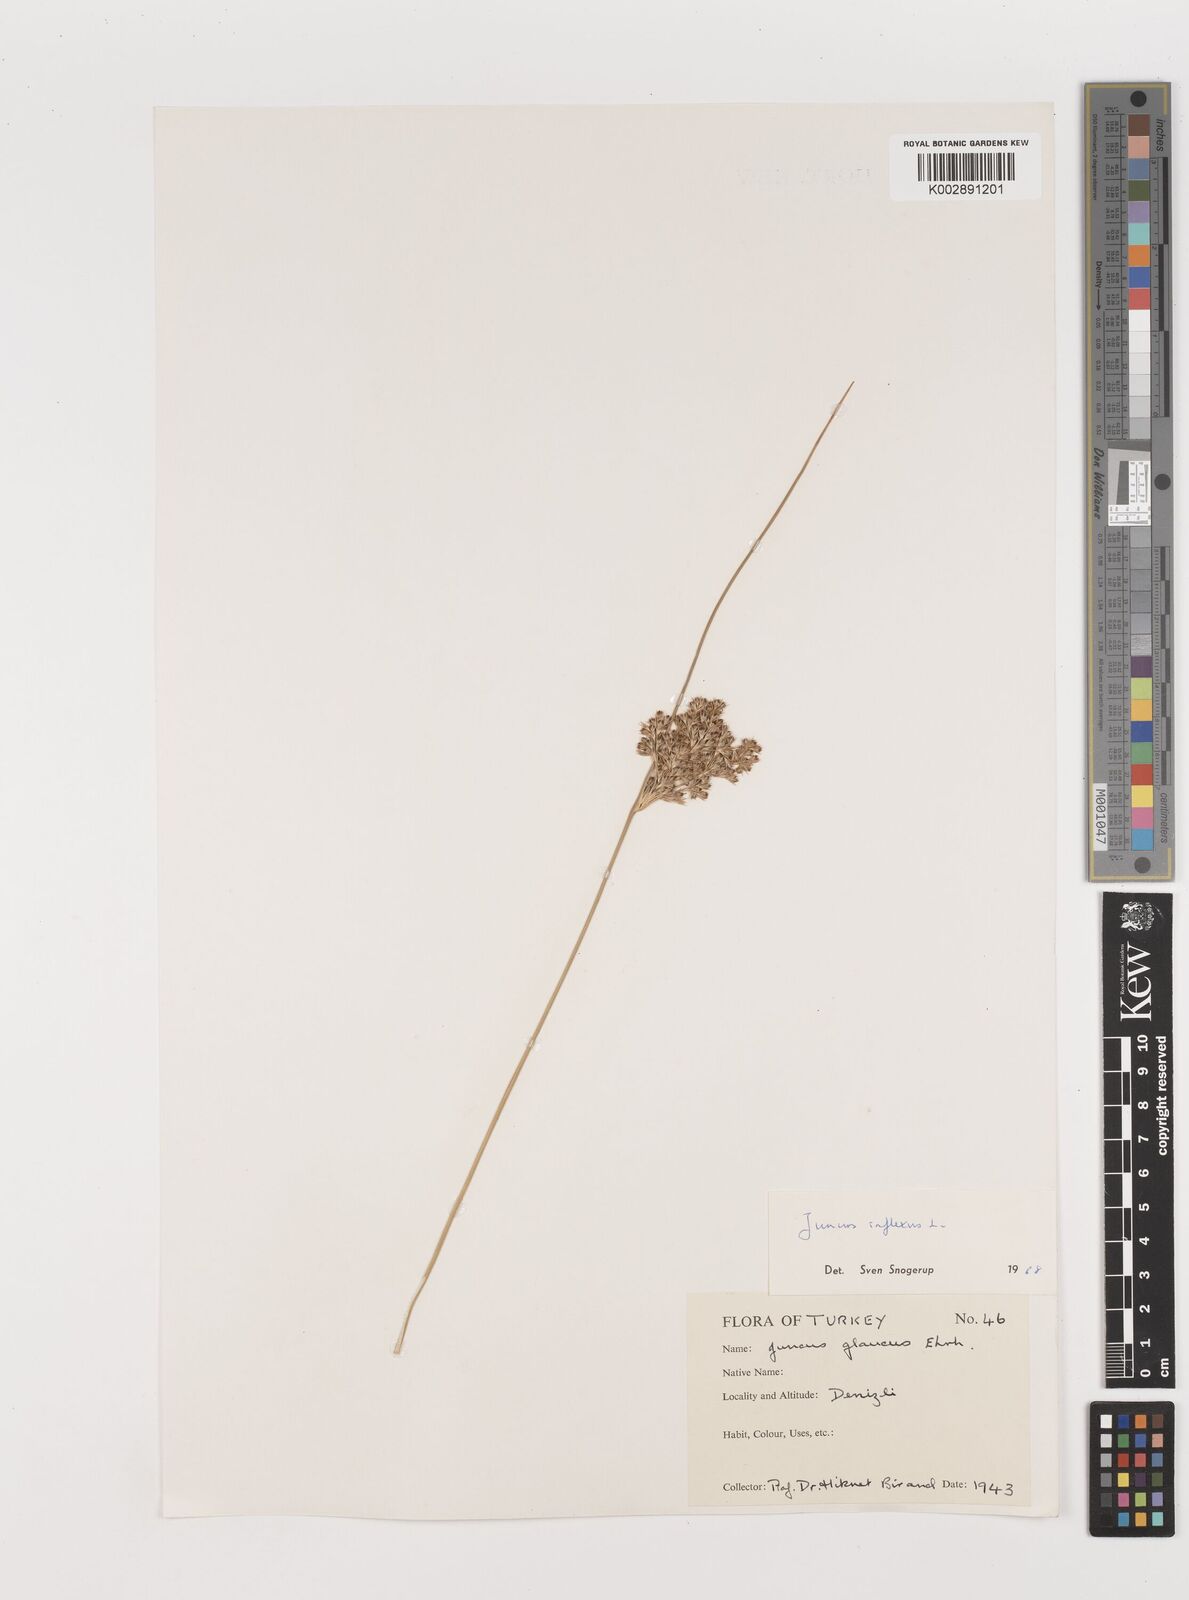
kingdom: Plantae
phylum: Tracheophyta
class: Liliopsida
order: Poales
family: Juncaceae
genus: Juncus
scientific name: Juncus inflexus
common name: Hard rush
